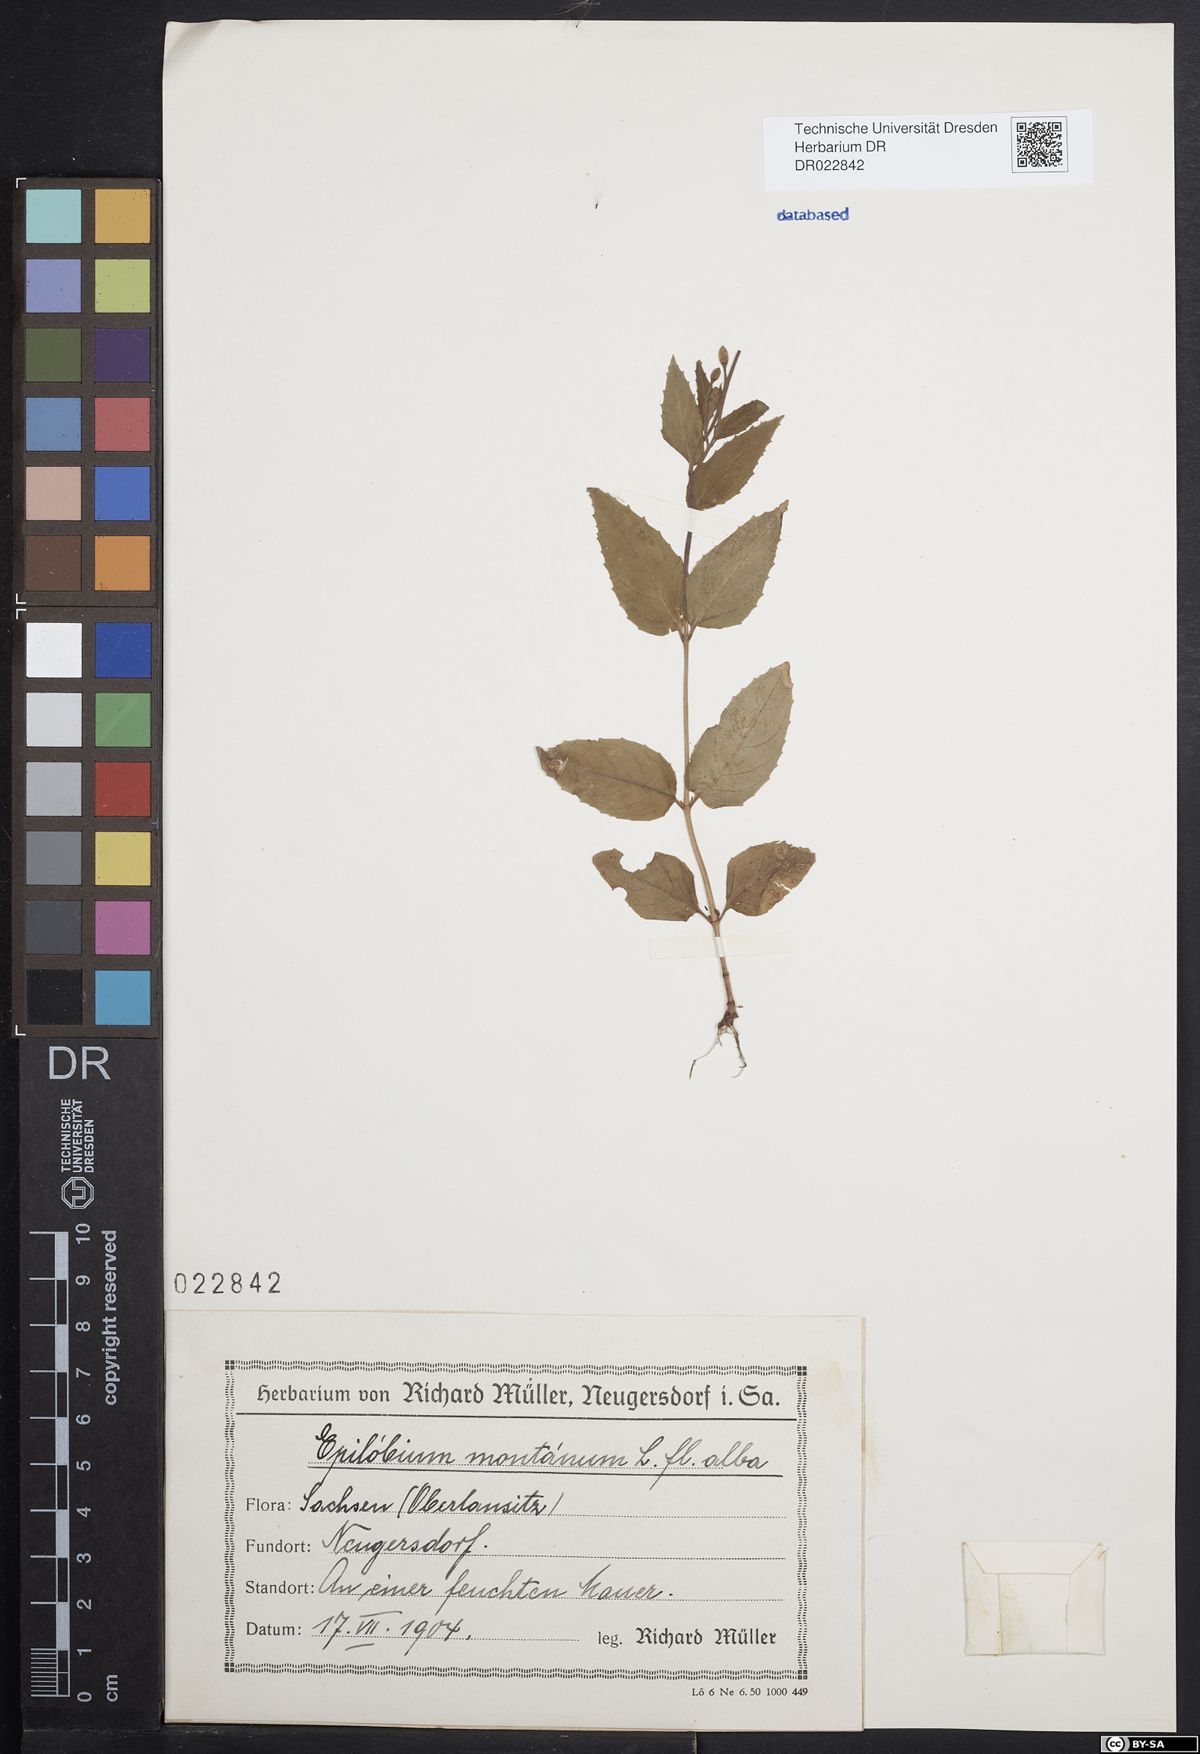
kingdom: Plantae
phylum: Tracheophyta
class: Magnoliopsida
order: Myrtales
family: Onagraceae
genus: Epilobium
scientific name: Epilobium montanum
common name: Broad-leaved willowherb
